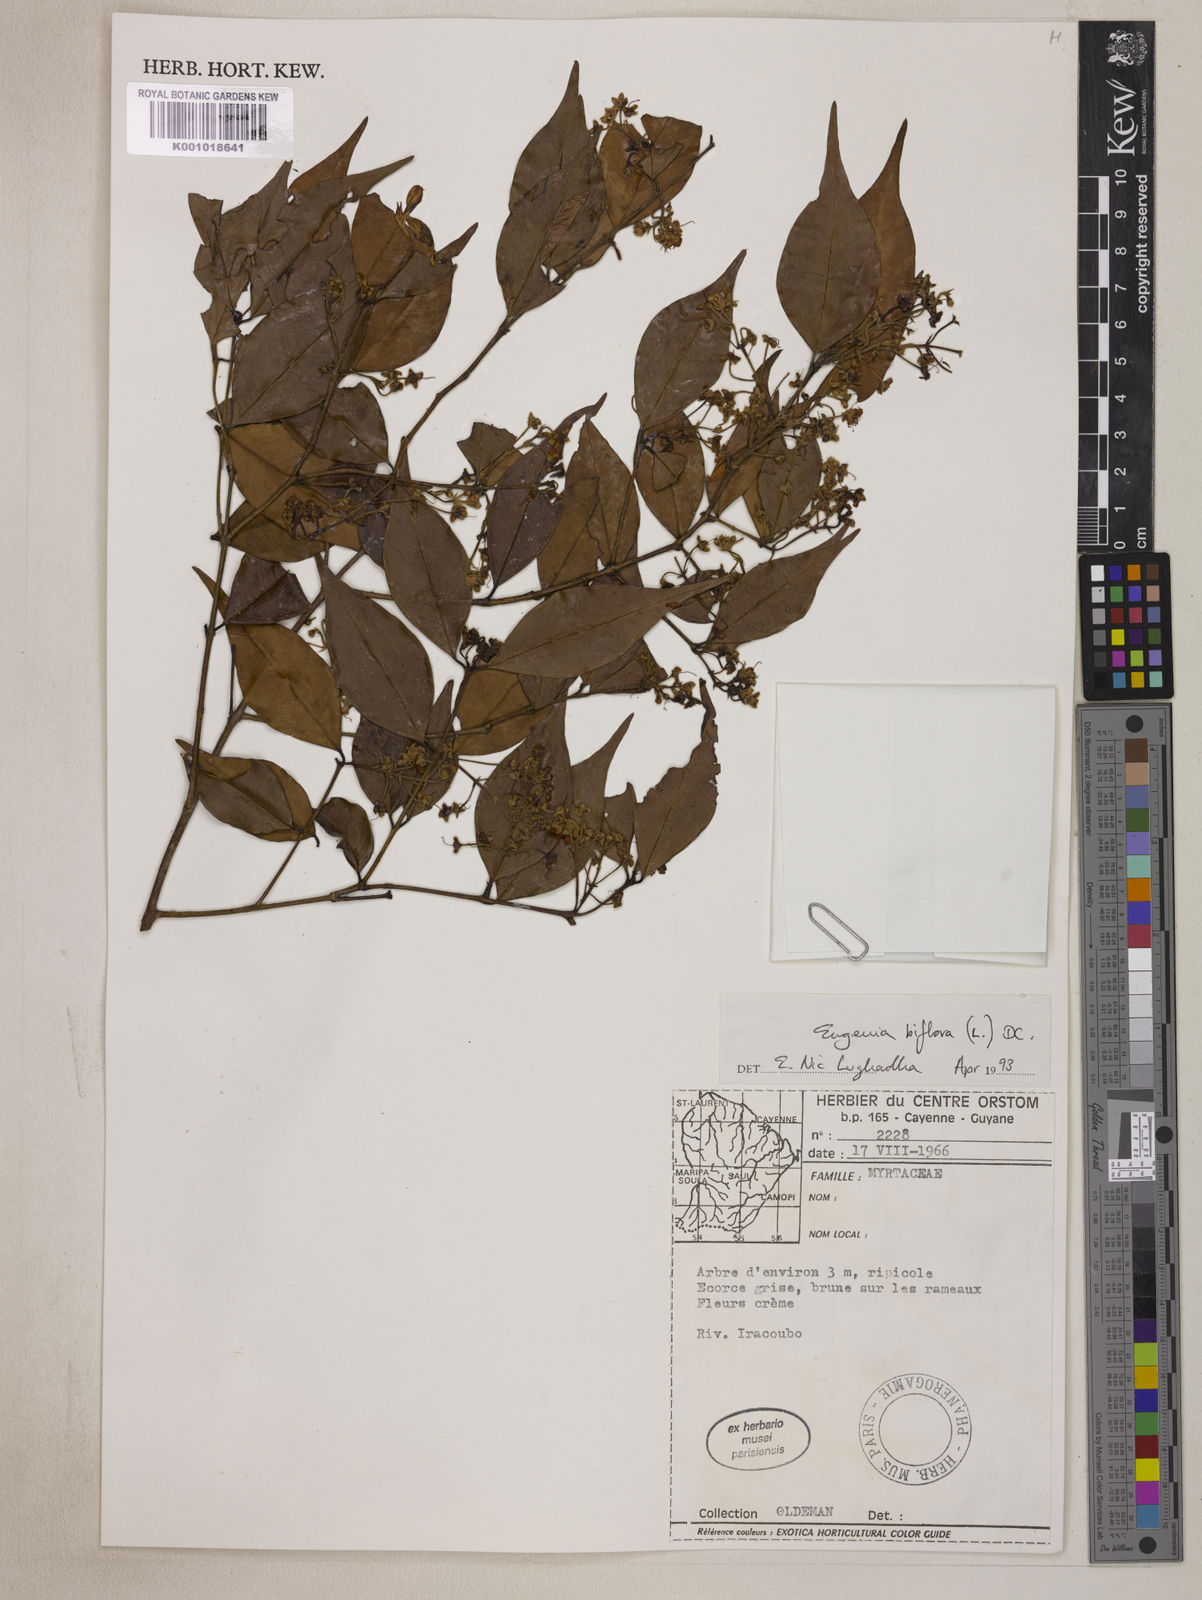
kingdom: Plantae
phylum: Tracheophyta
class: Magnoliopsida
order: Myrtales
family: Myrtaceae
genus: Eugenia
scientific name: Eugenia biflora
